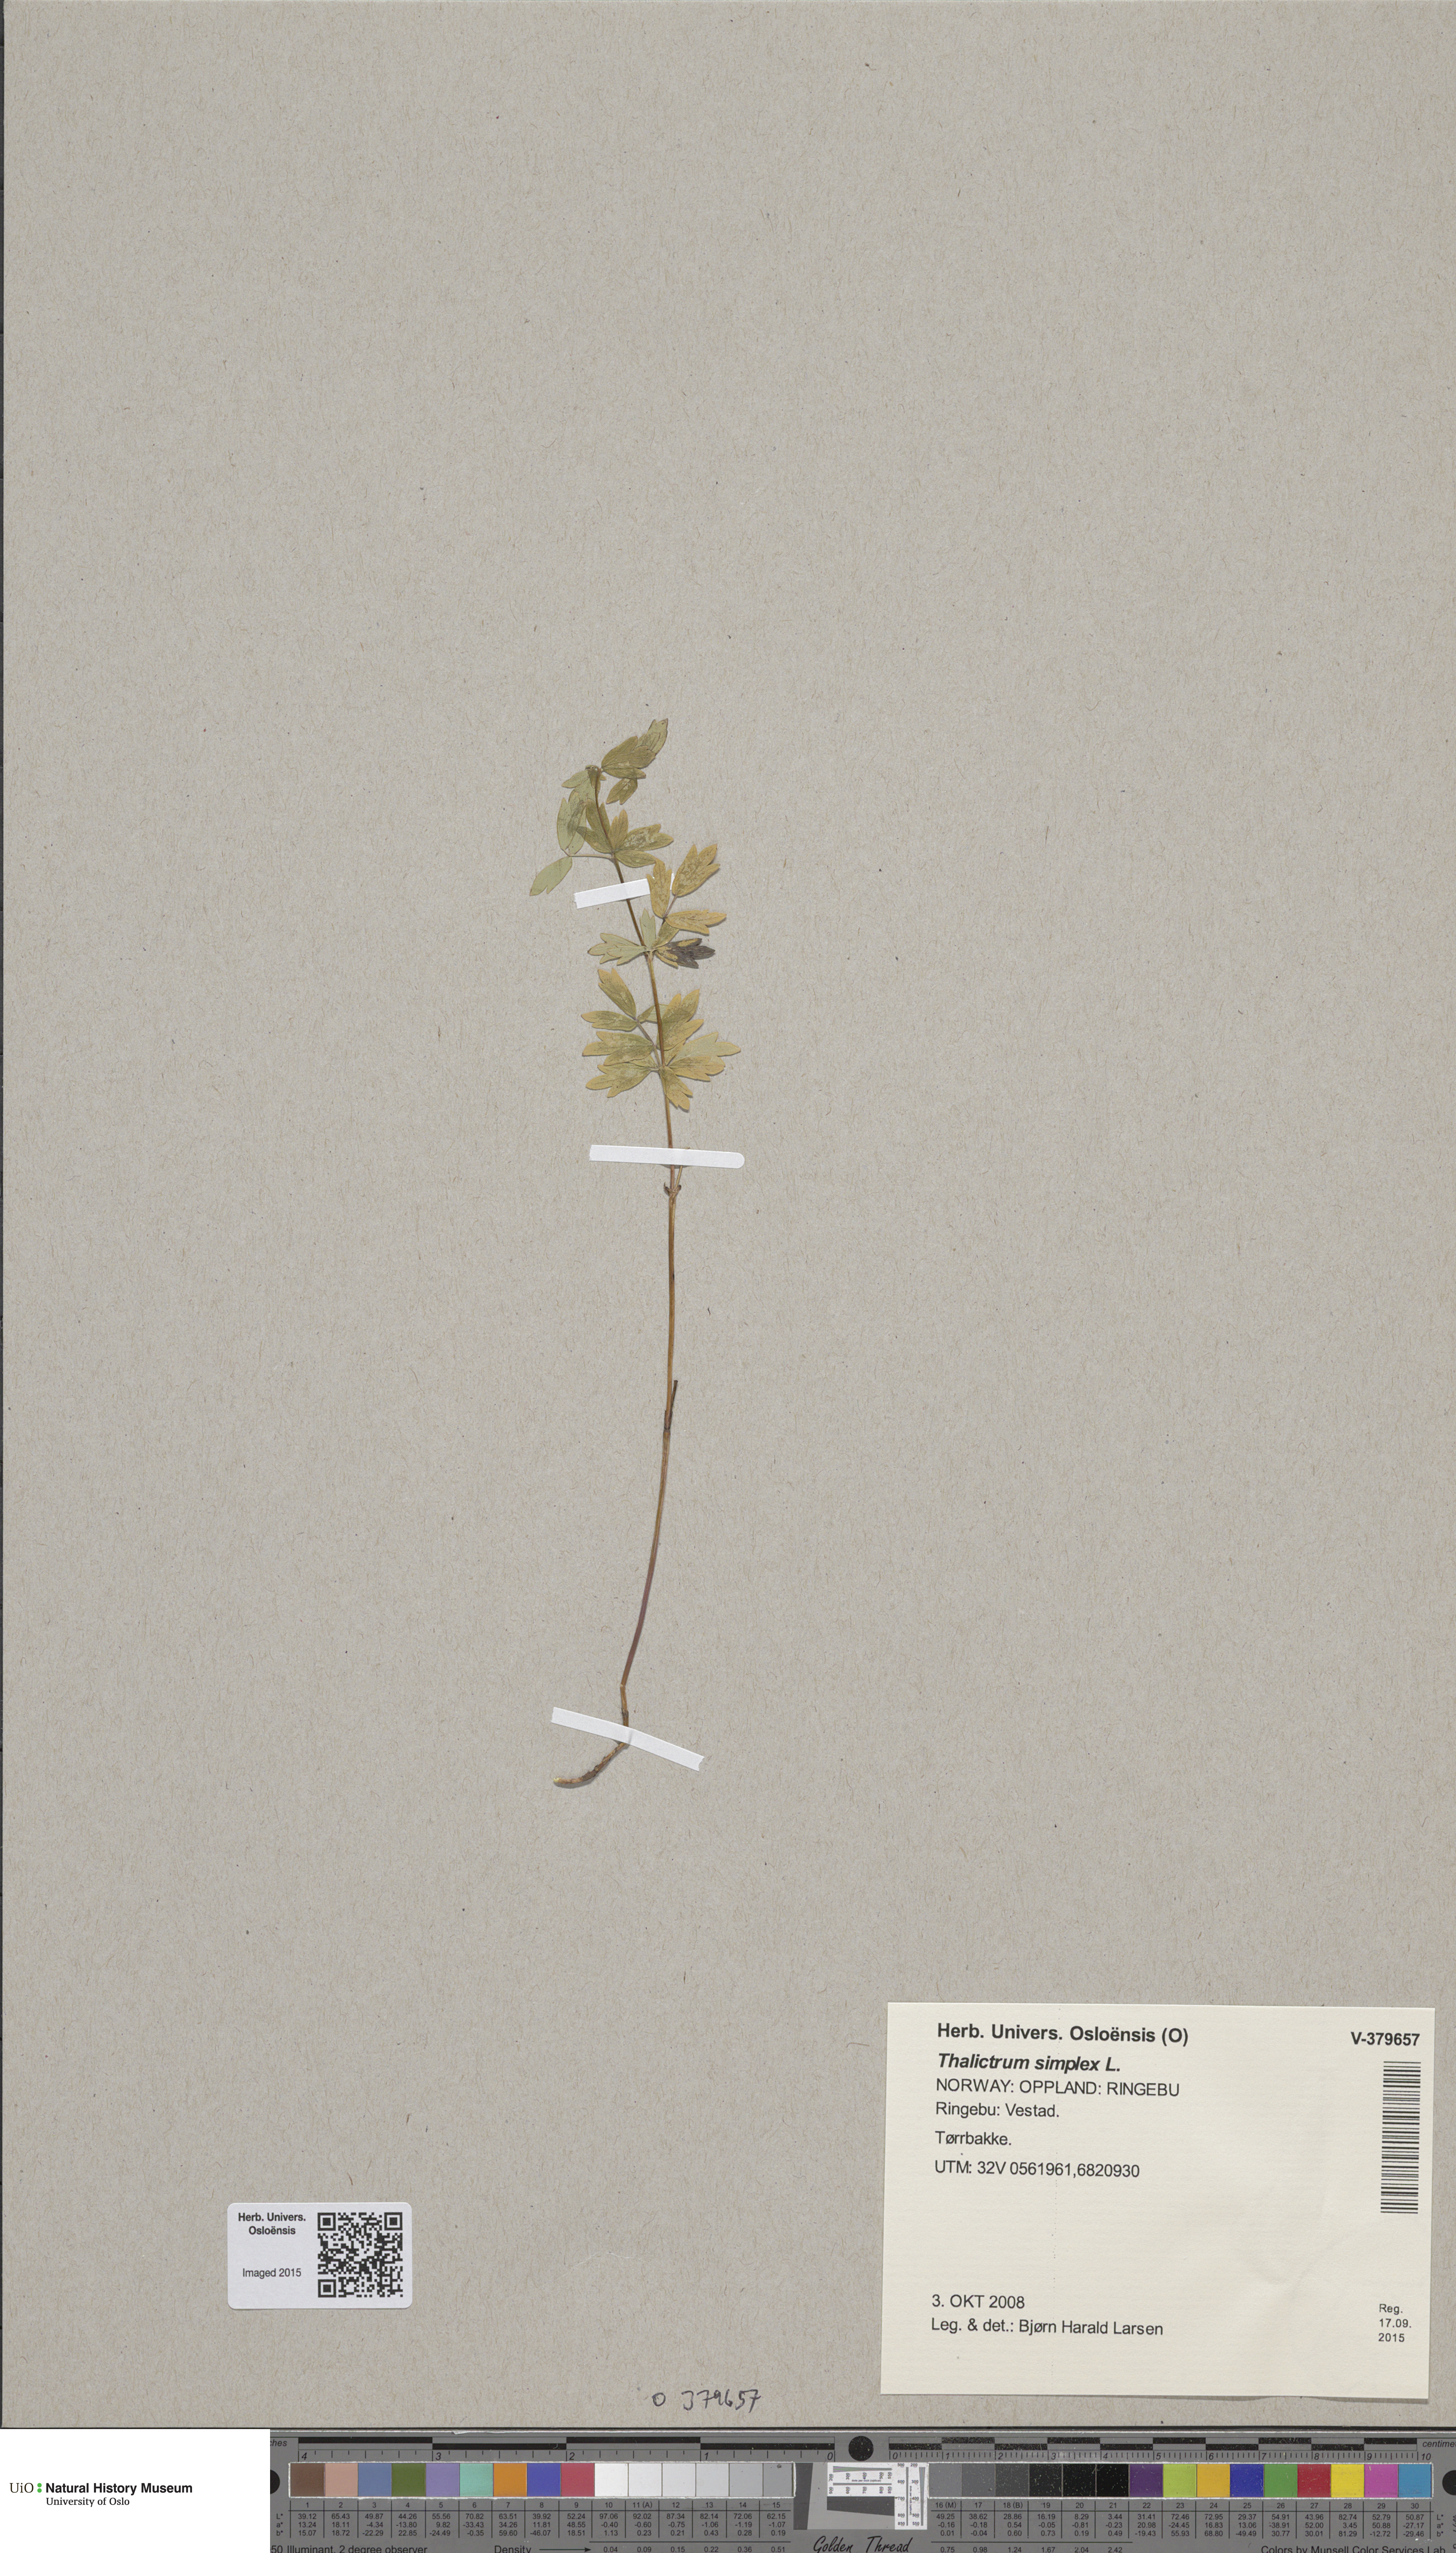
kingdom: Plantae
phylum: Tracheophyta
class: Magnoliopsida
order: Ranunculales
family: Ranunculaceae
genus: Thalictrum
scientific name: Thalictrum simplex
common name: Small meadow-rue
